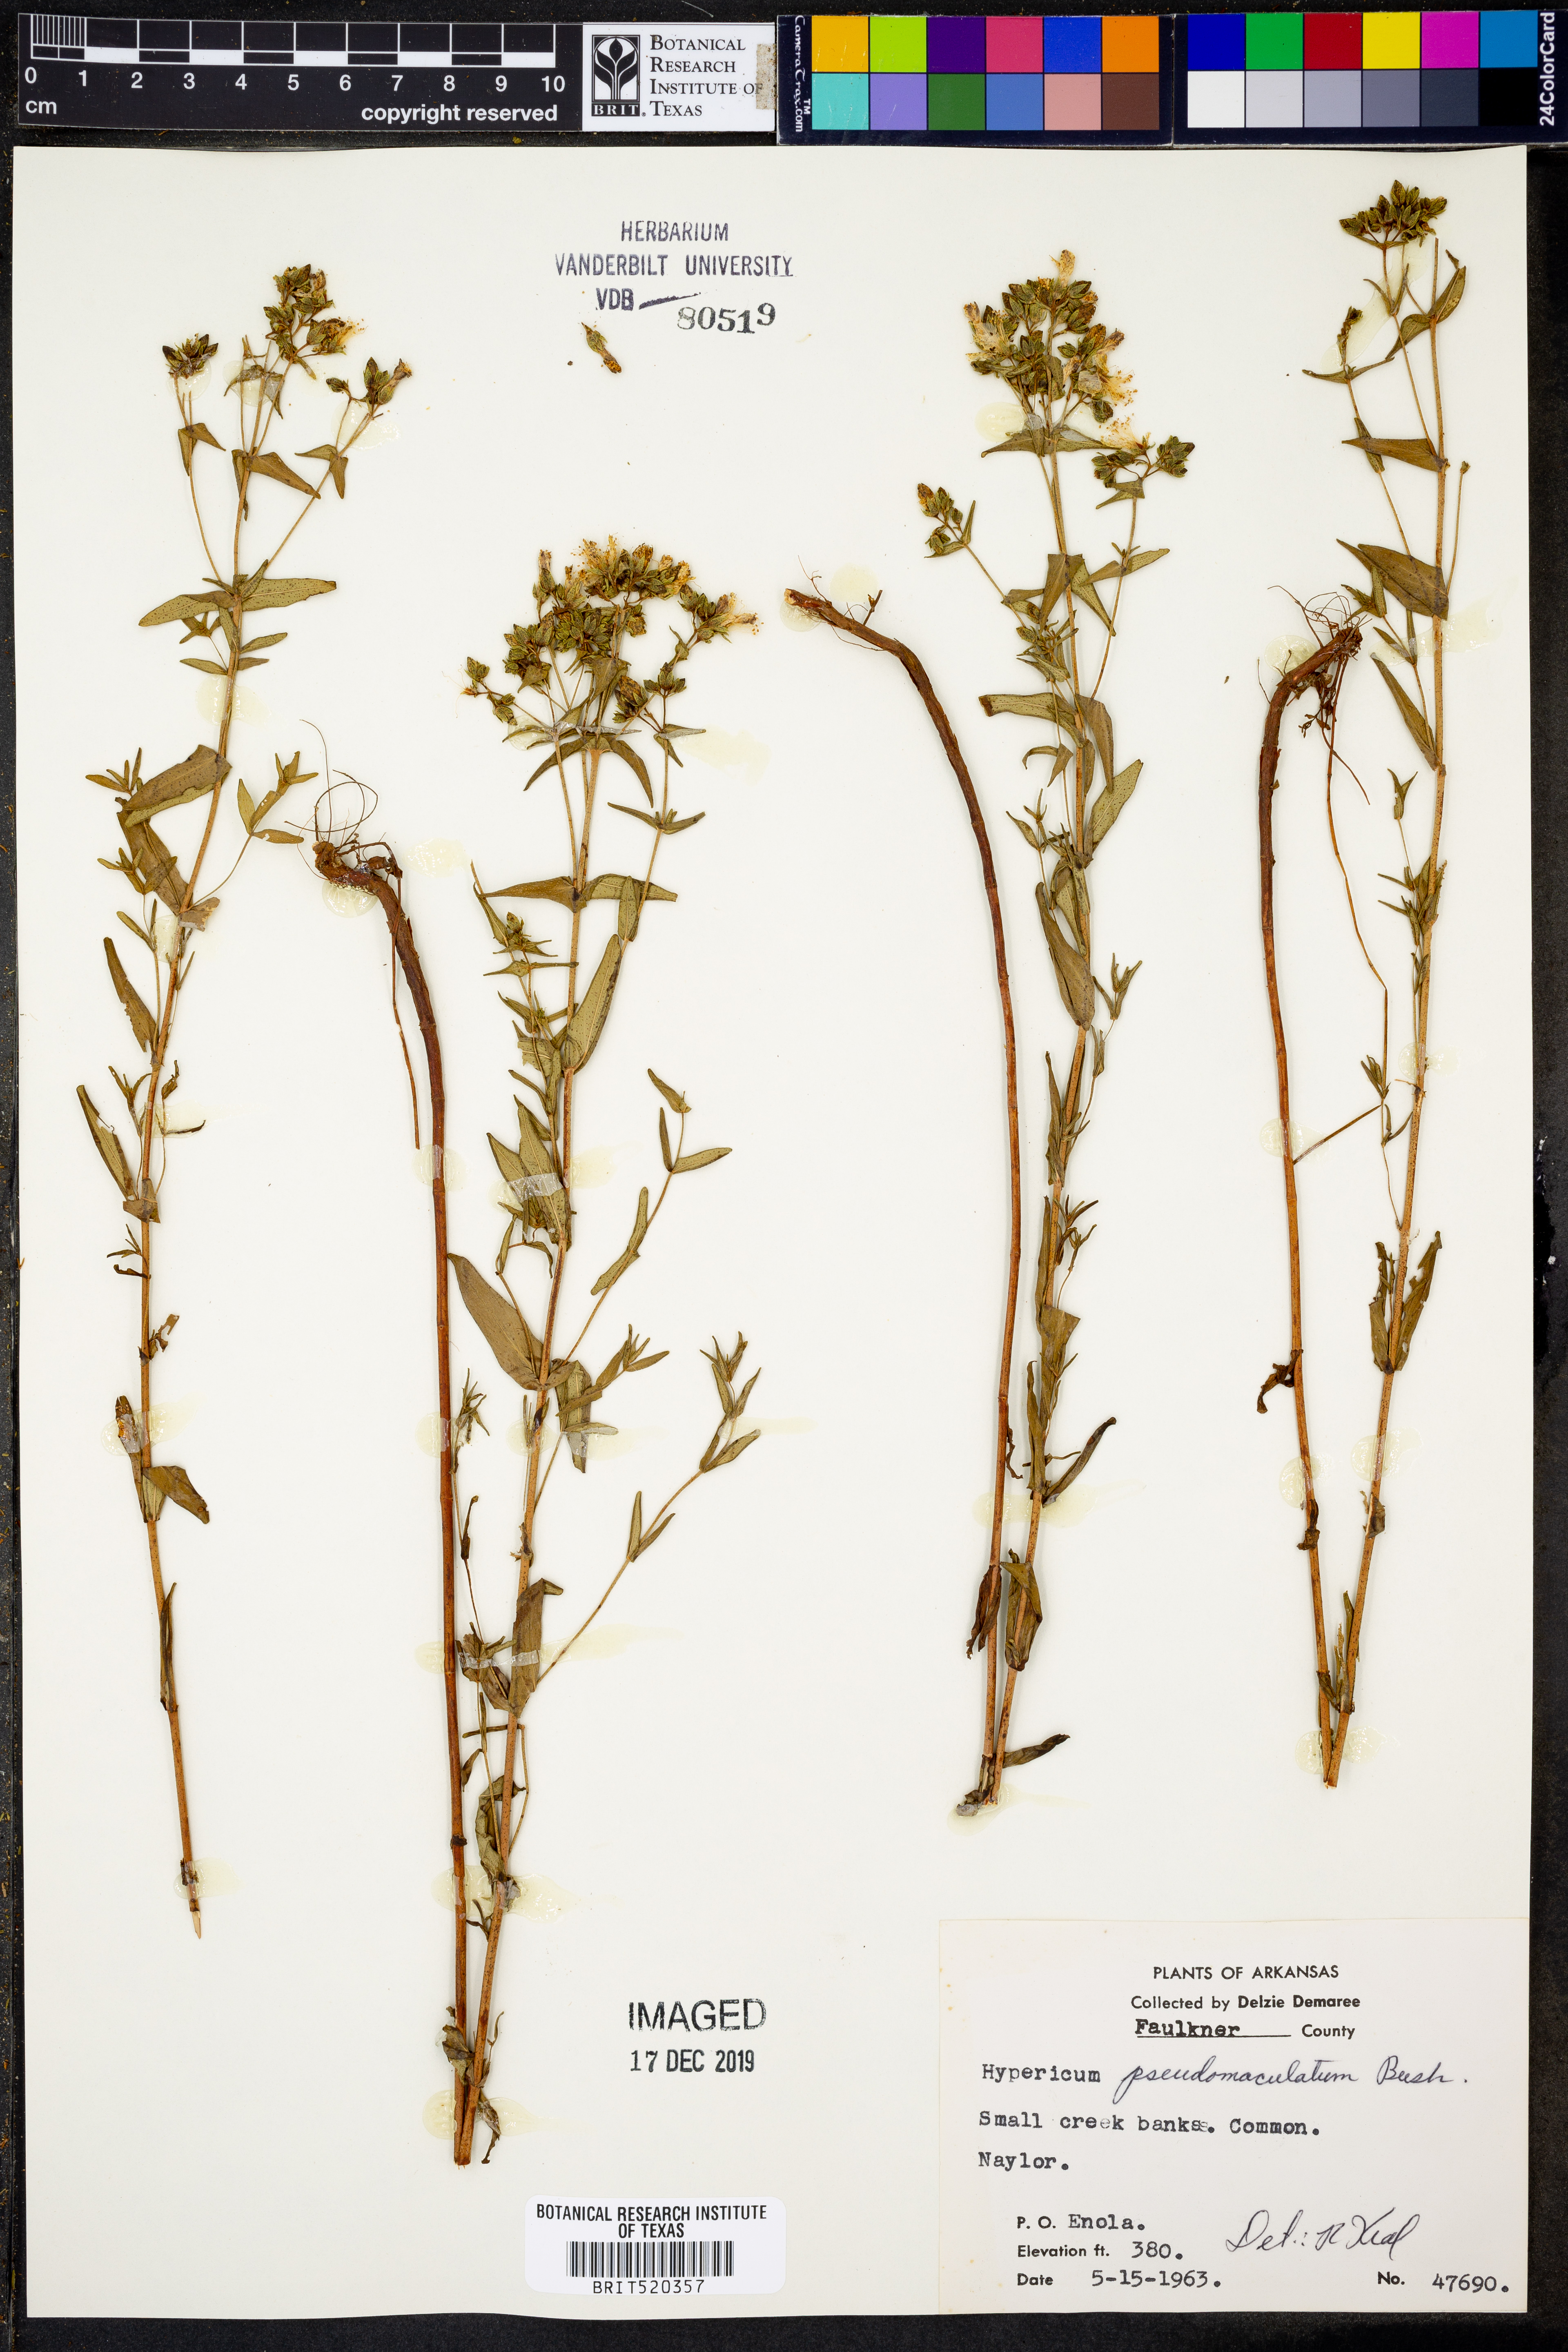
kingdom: Plantae
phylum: Tracheophyta
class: Magnoliopsida
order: Malpighiales
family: Hypericaceae
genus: Hypericum
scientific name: Hypericum pseudomaculatum
